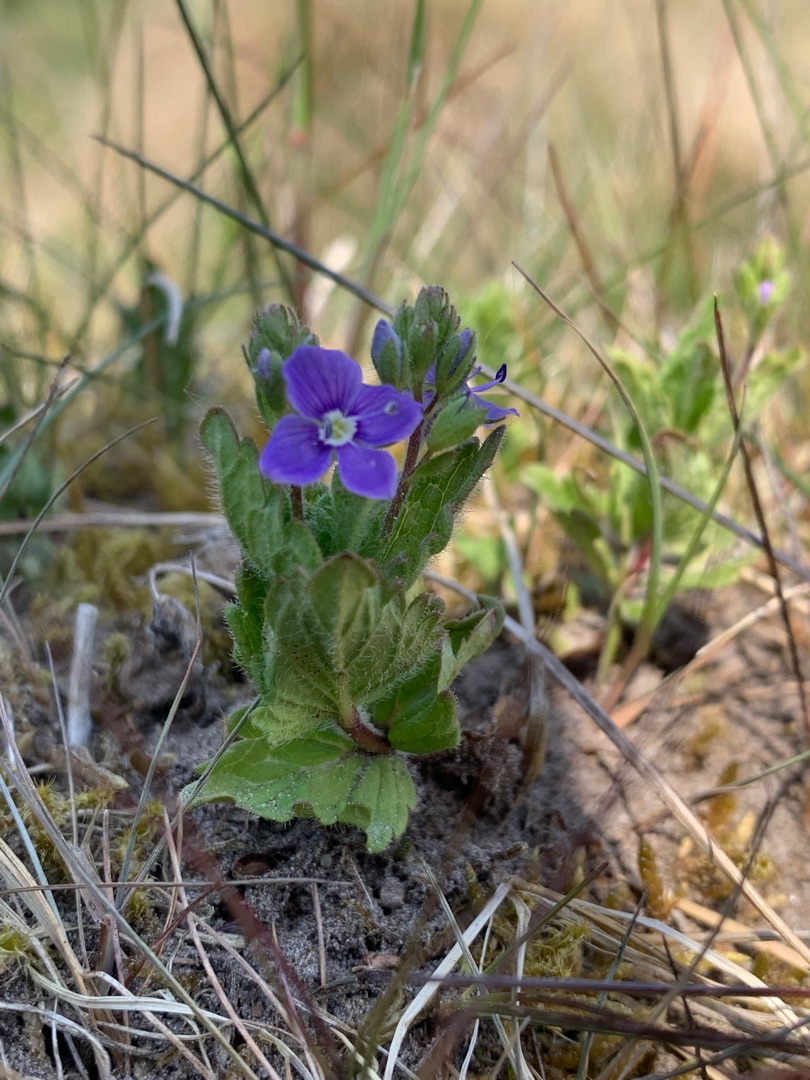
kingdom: Plantae
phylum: Tracheophyta
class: Magnoliopsida
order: Lamiales
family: Plantaginaceae
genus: Veronica
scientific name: Veronica chamaedrys
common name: Tveskægget ærenpris
